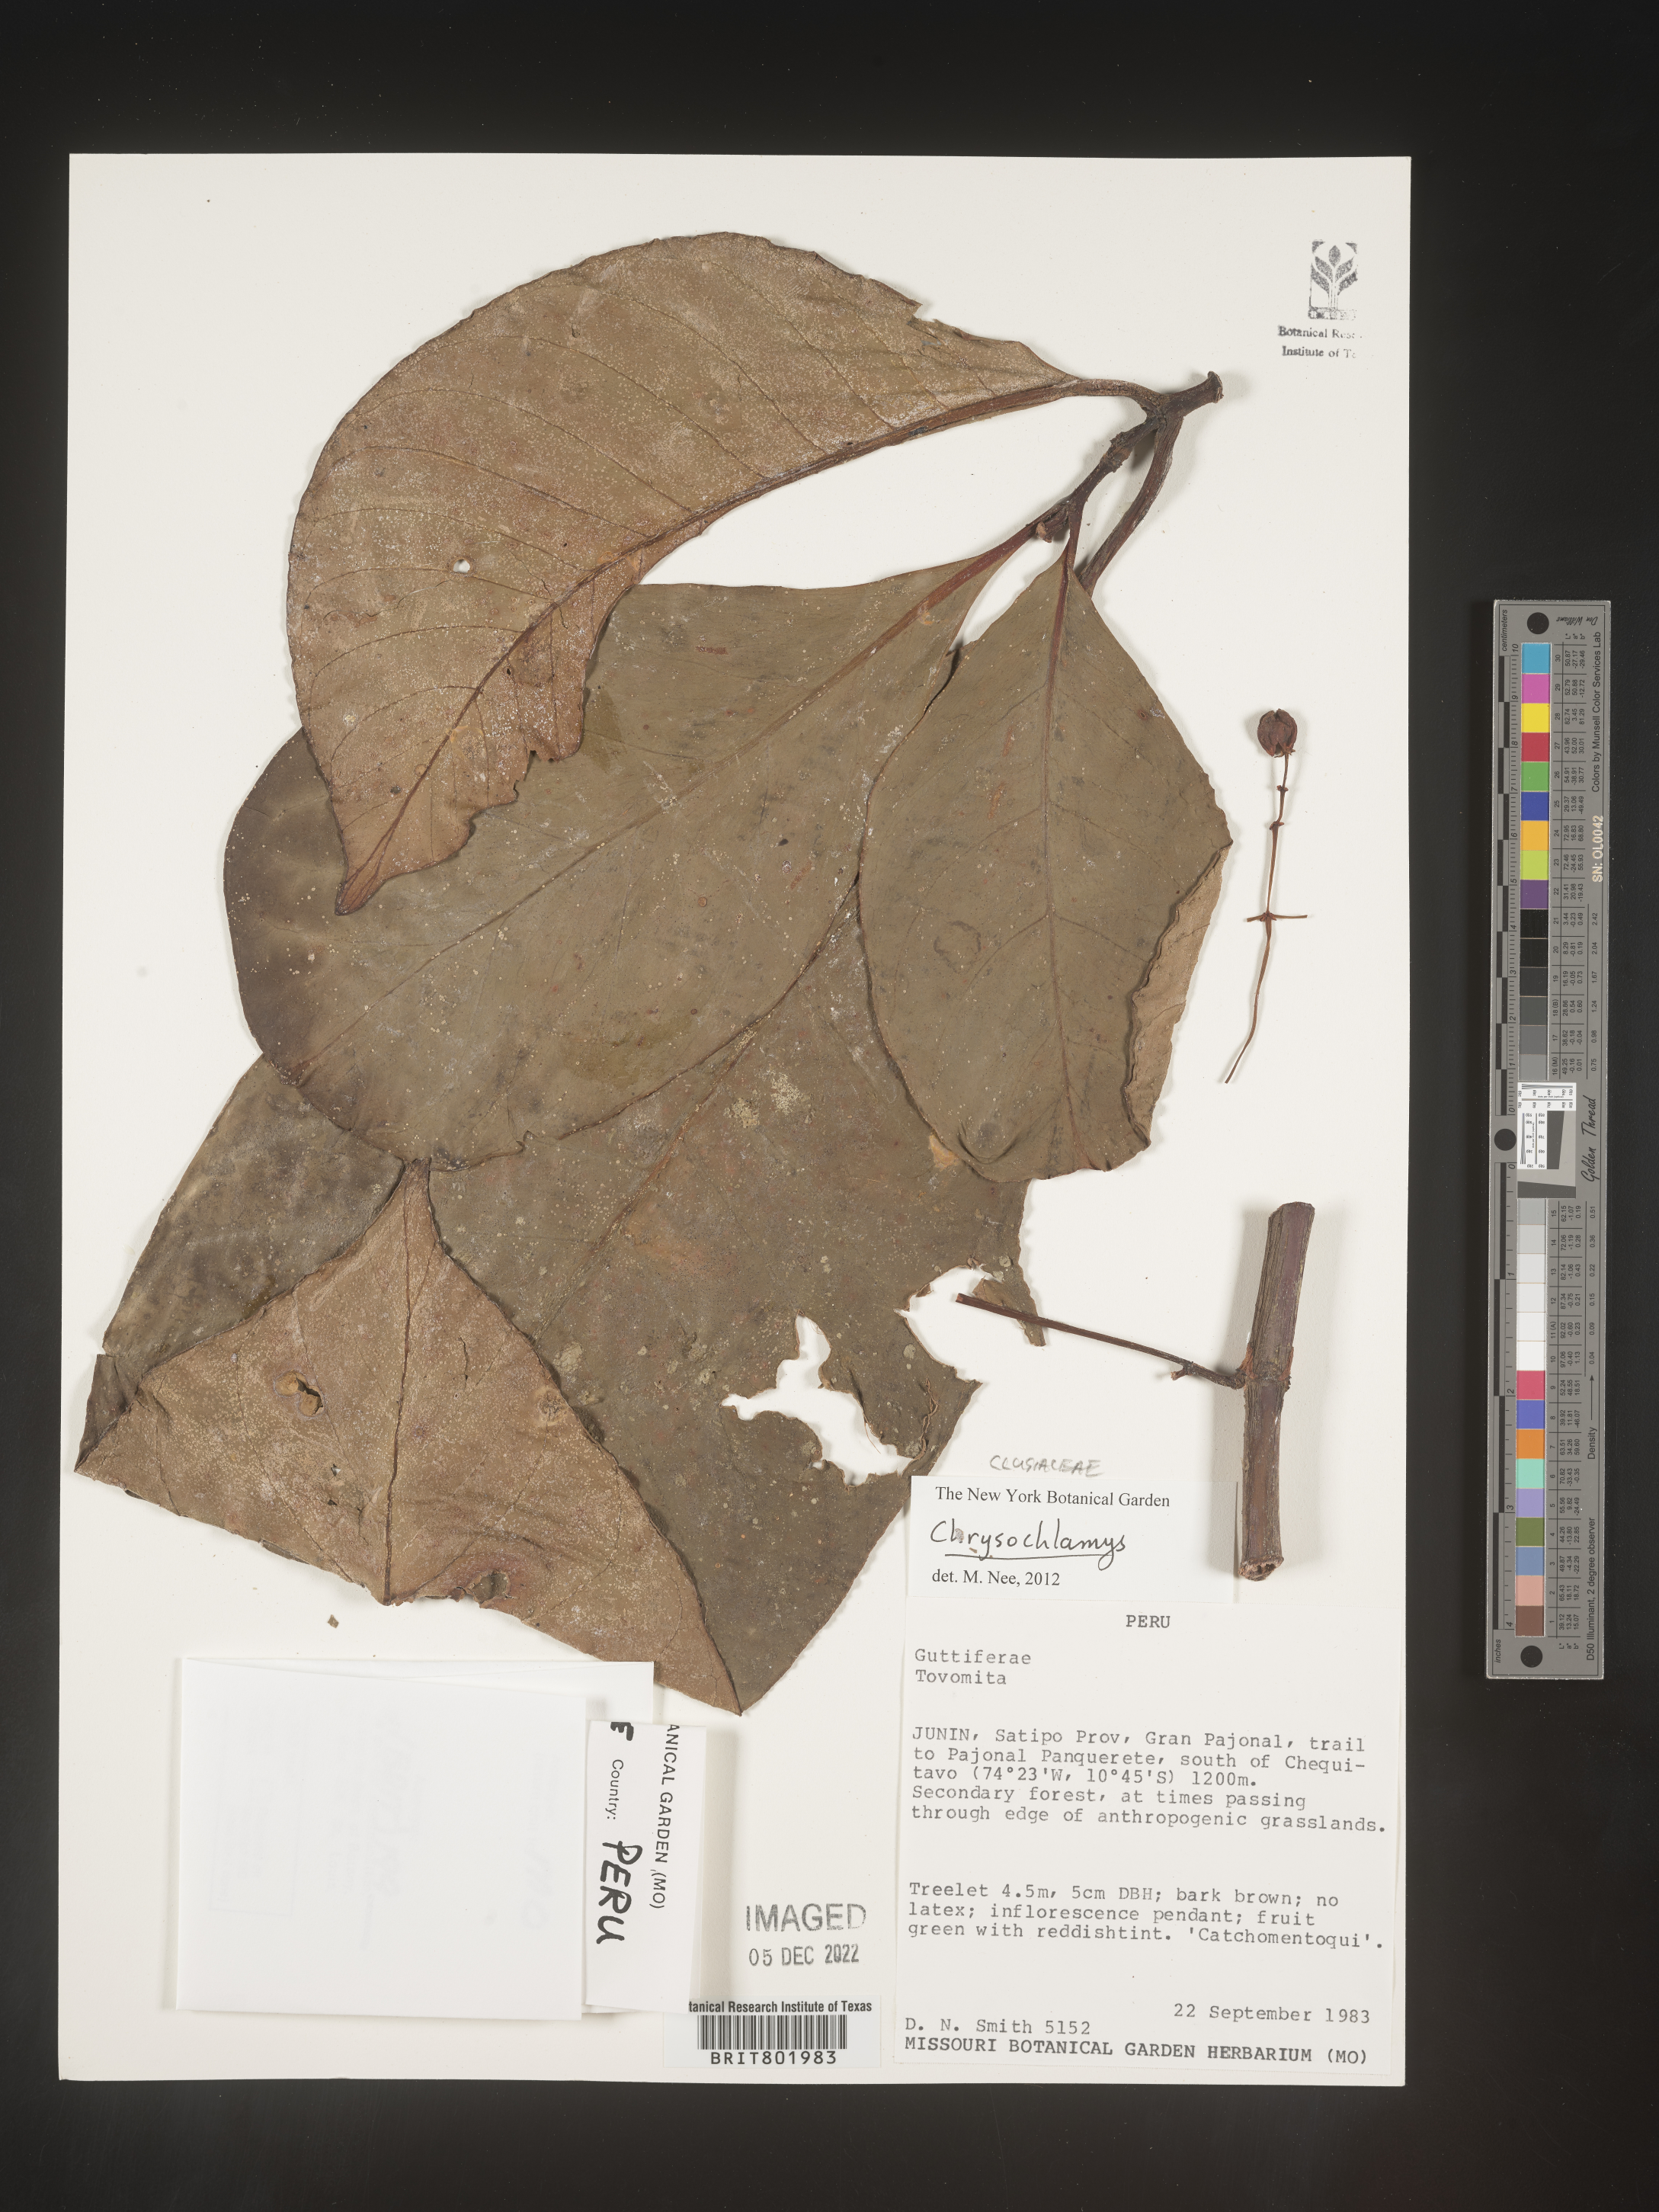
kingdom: Plantae
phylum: Tracheophyta
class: Magnoliopsida
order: Malpighiales
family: Clusiaceae
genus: Chrysochlamys
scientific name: Chrysochlamys
